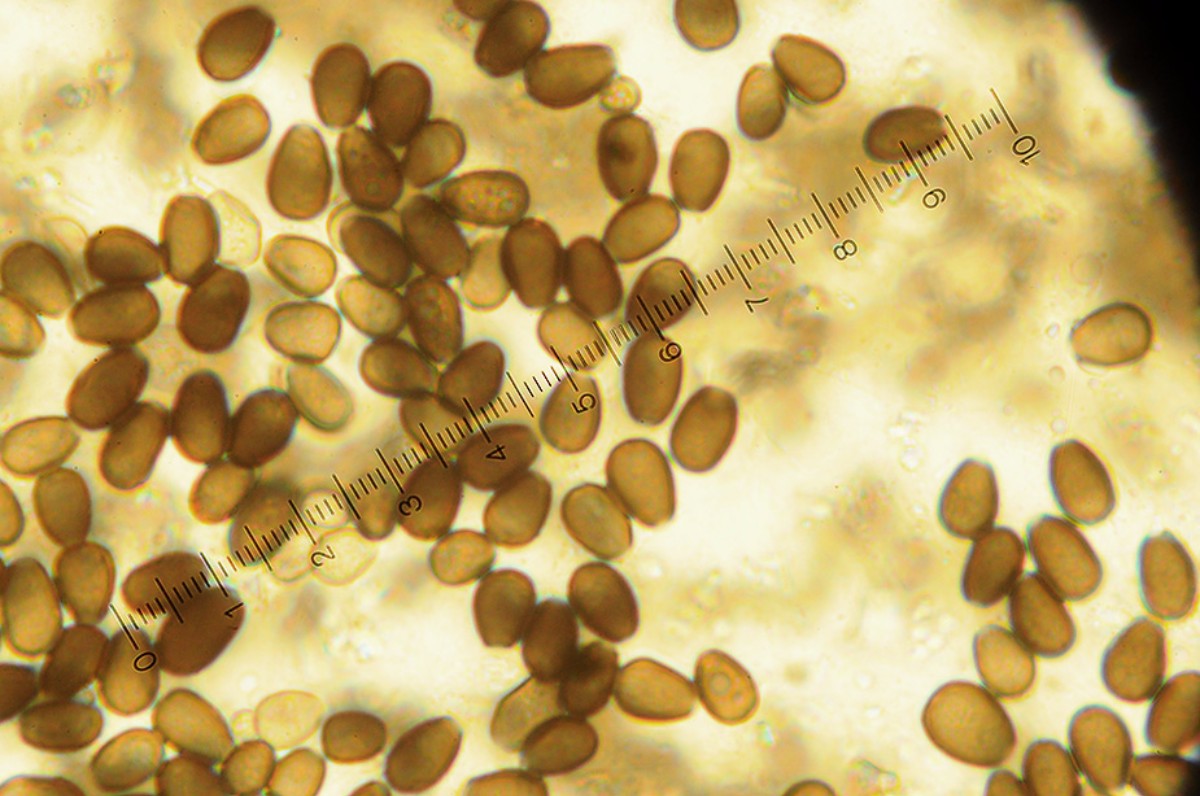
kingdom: Fungi
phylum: Basidiomycota
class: Agaricomycetes
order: Agaricales
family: Psathyrellaceae
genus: Psathyrella
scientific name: Psathyrella panaeoloides
